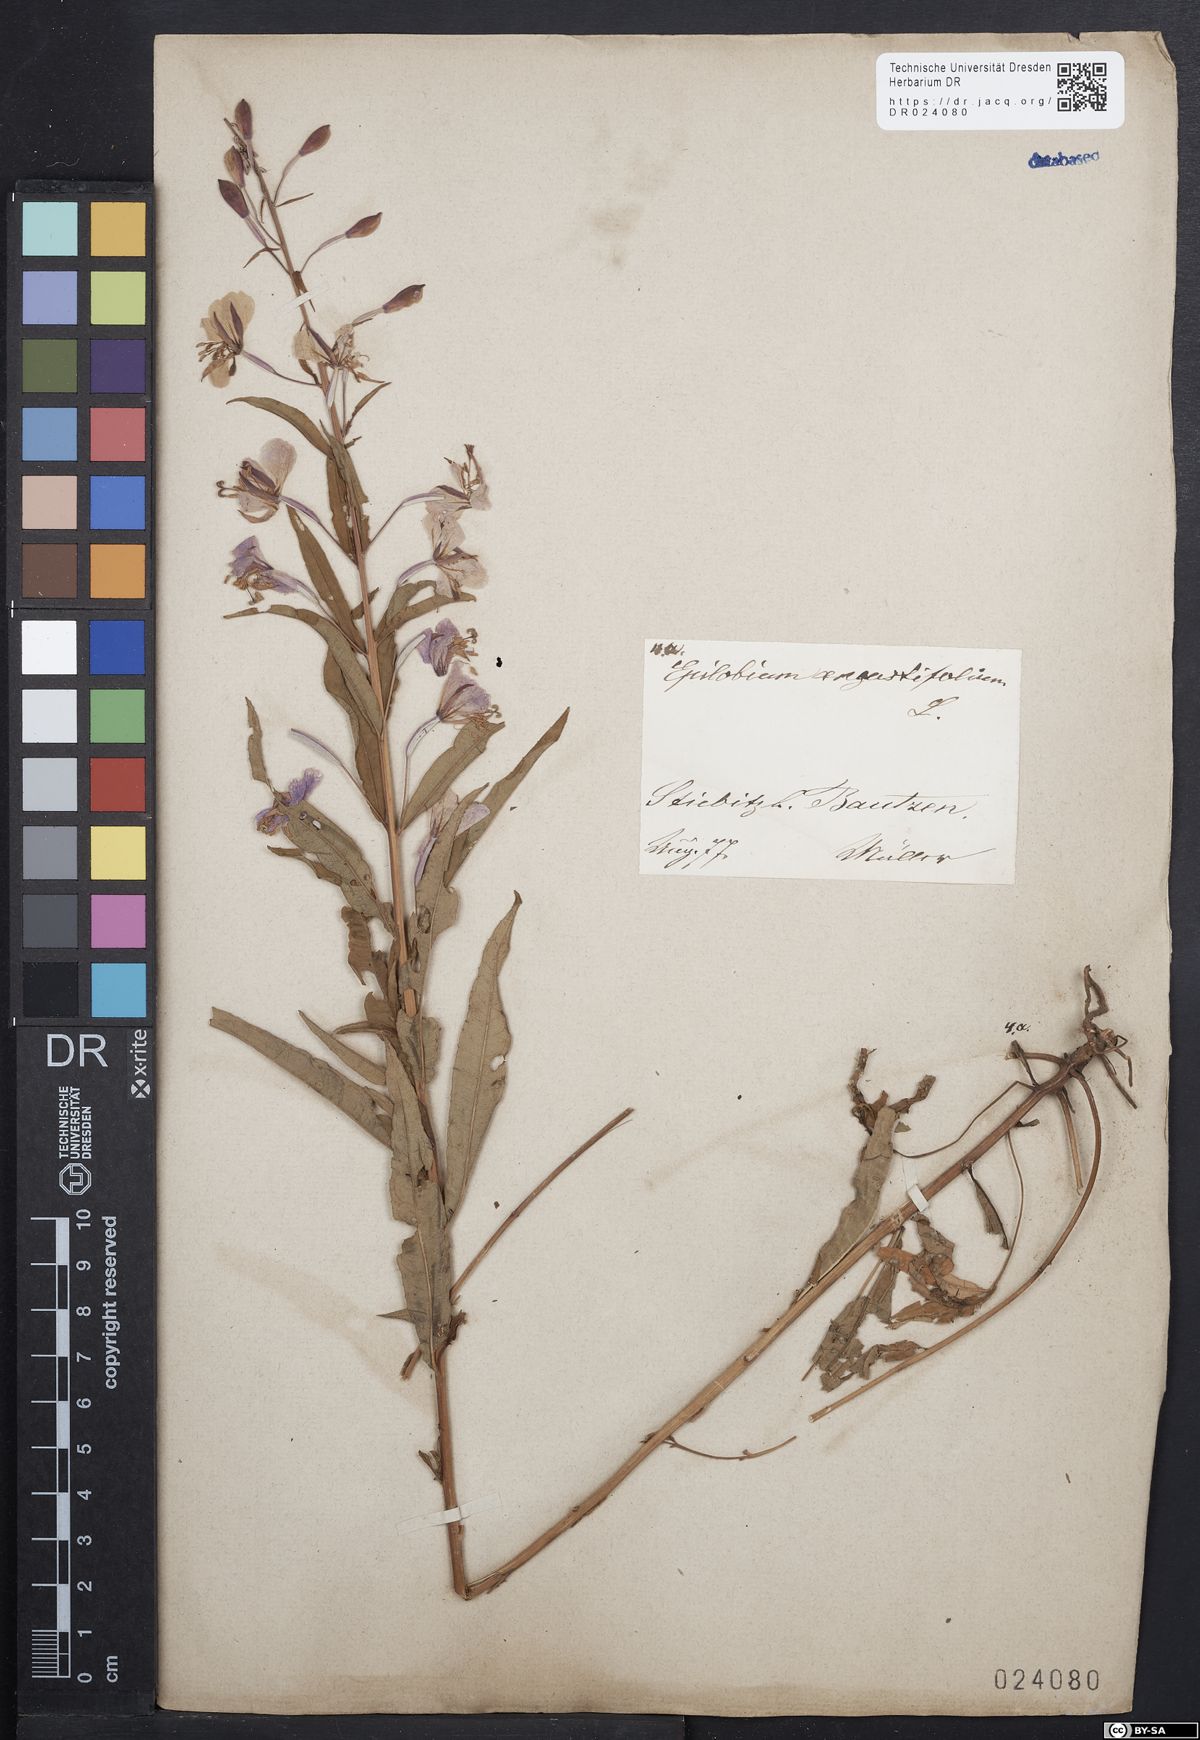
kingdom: Plantae
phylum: Tracheophyta
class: Magnoliopsida
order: Myrtales
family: Onagraceae
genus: Chamaenerion
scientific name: Chamaenerion angustifolium
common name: Fireweed
